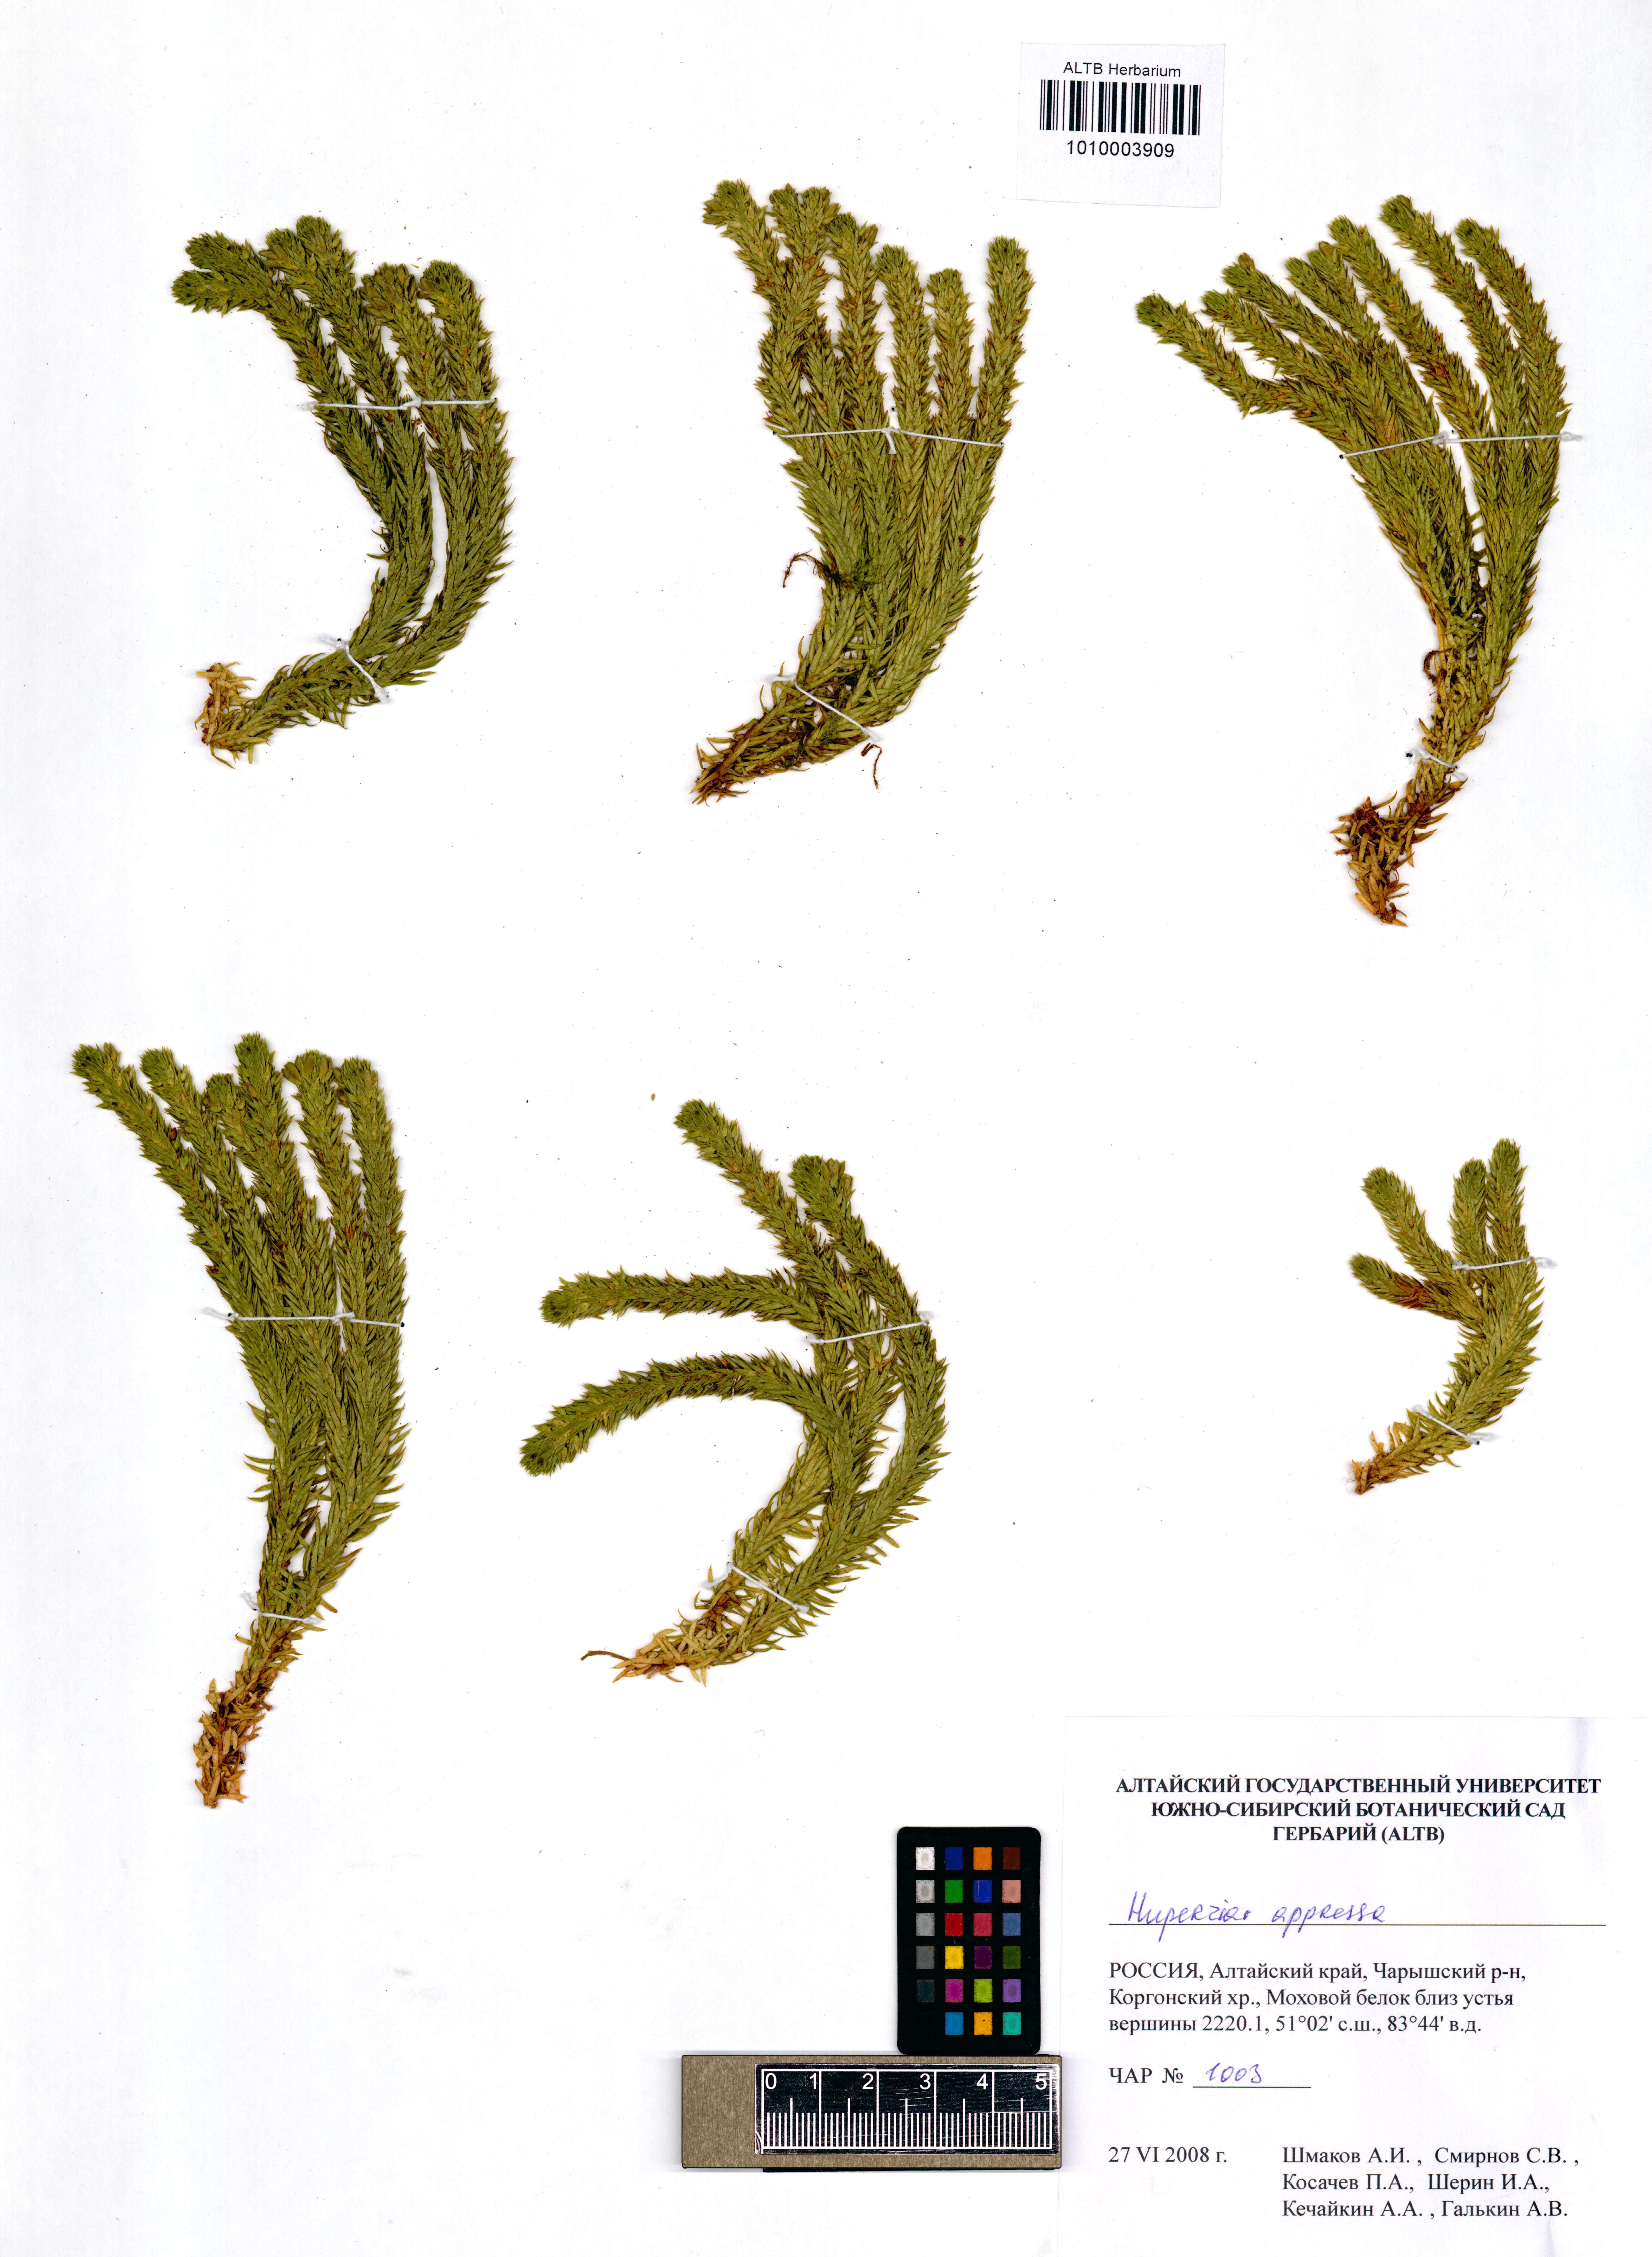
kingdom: Plantae
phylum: Tracheophyta
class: Lycopodiopsida
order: Lycopodiales
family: Lycopodiaceae
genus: Huperzia
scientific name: Huperzia selago
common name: Northern firmoss
